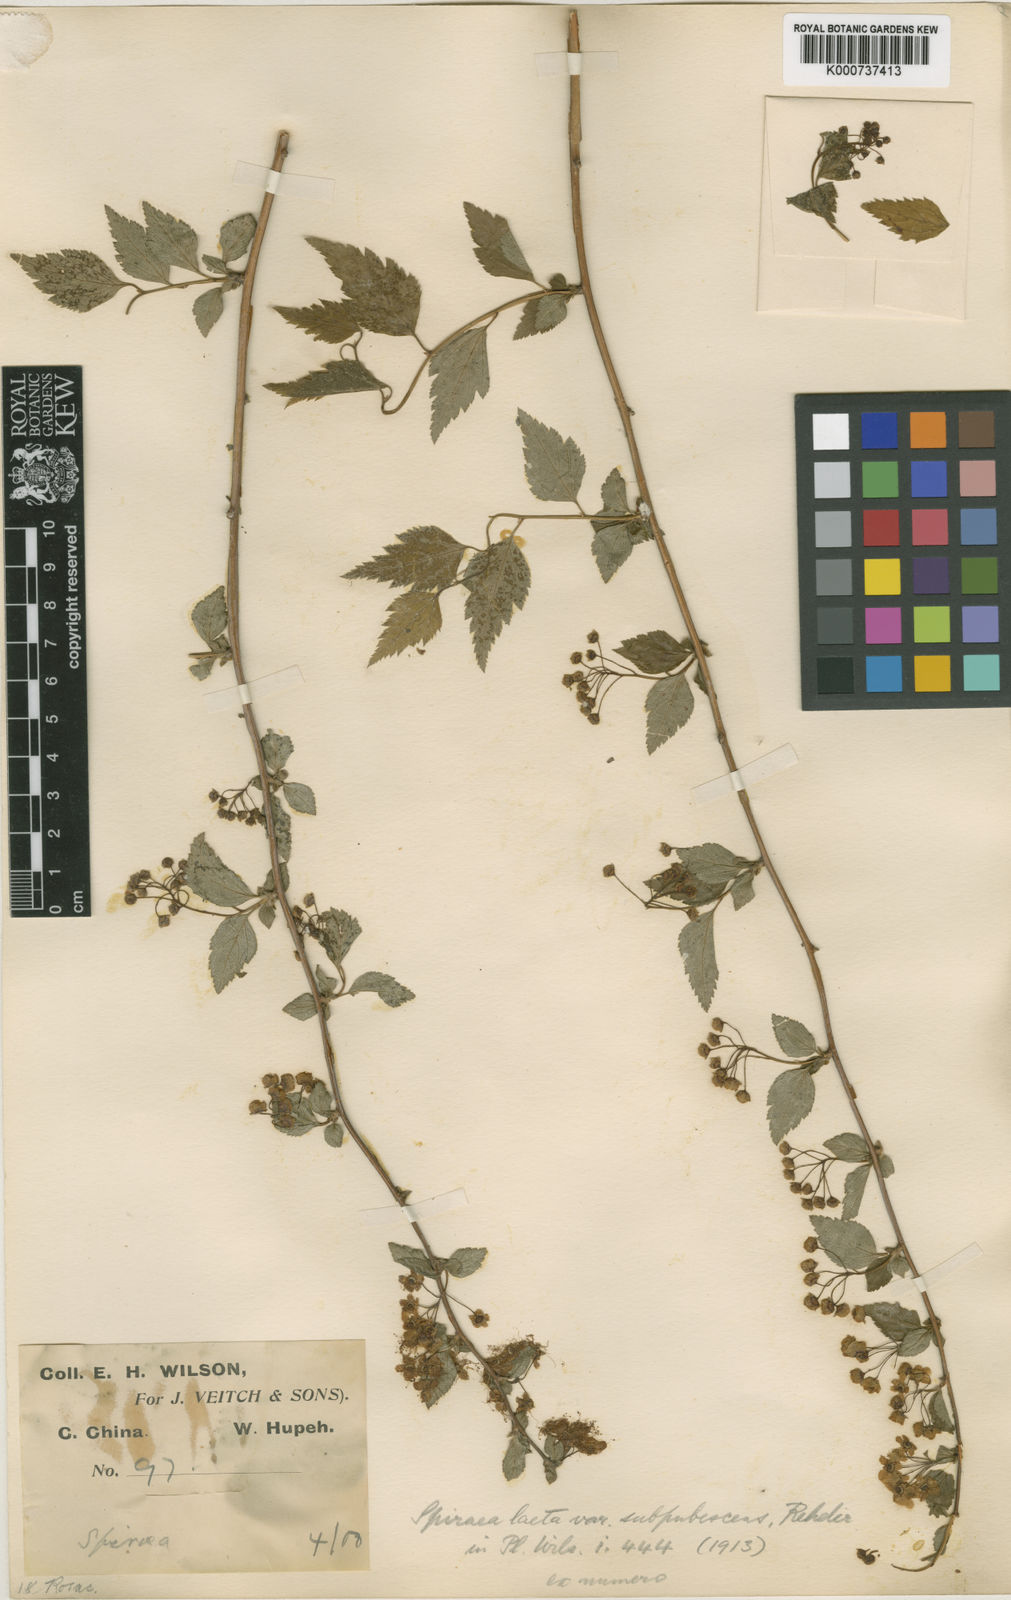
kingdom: Plantae
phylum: Tracheophyta
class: Magnoliopsida
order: Rosales
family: Rosaceae
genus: Spiraea
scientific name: Spiraea laeta
